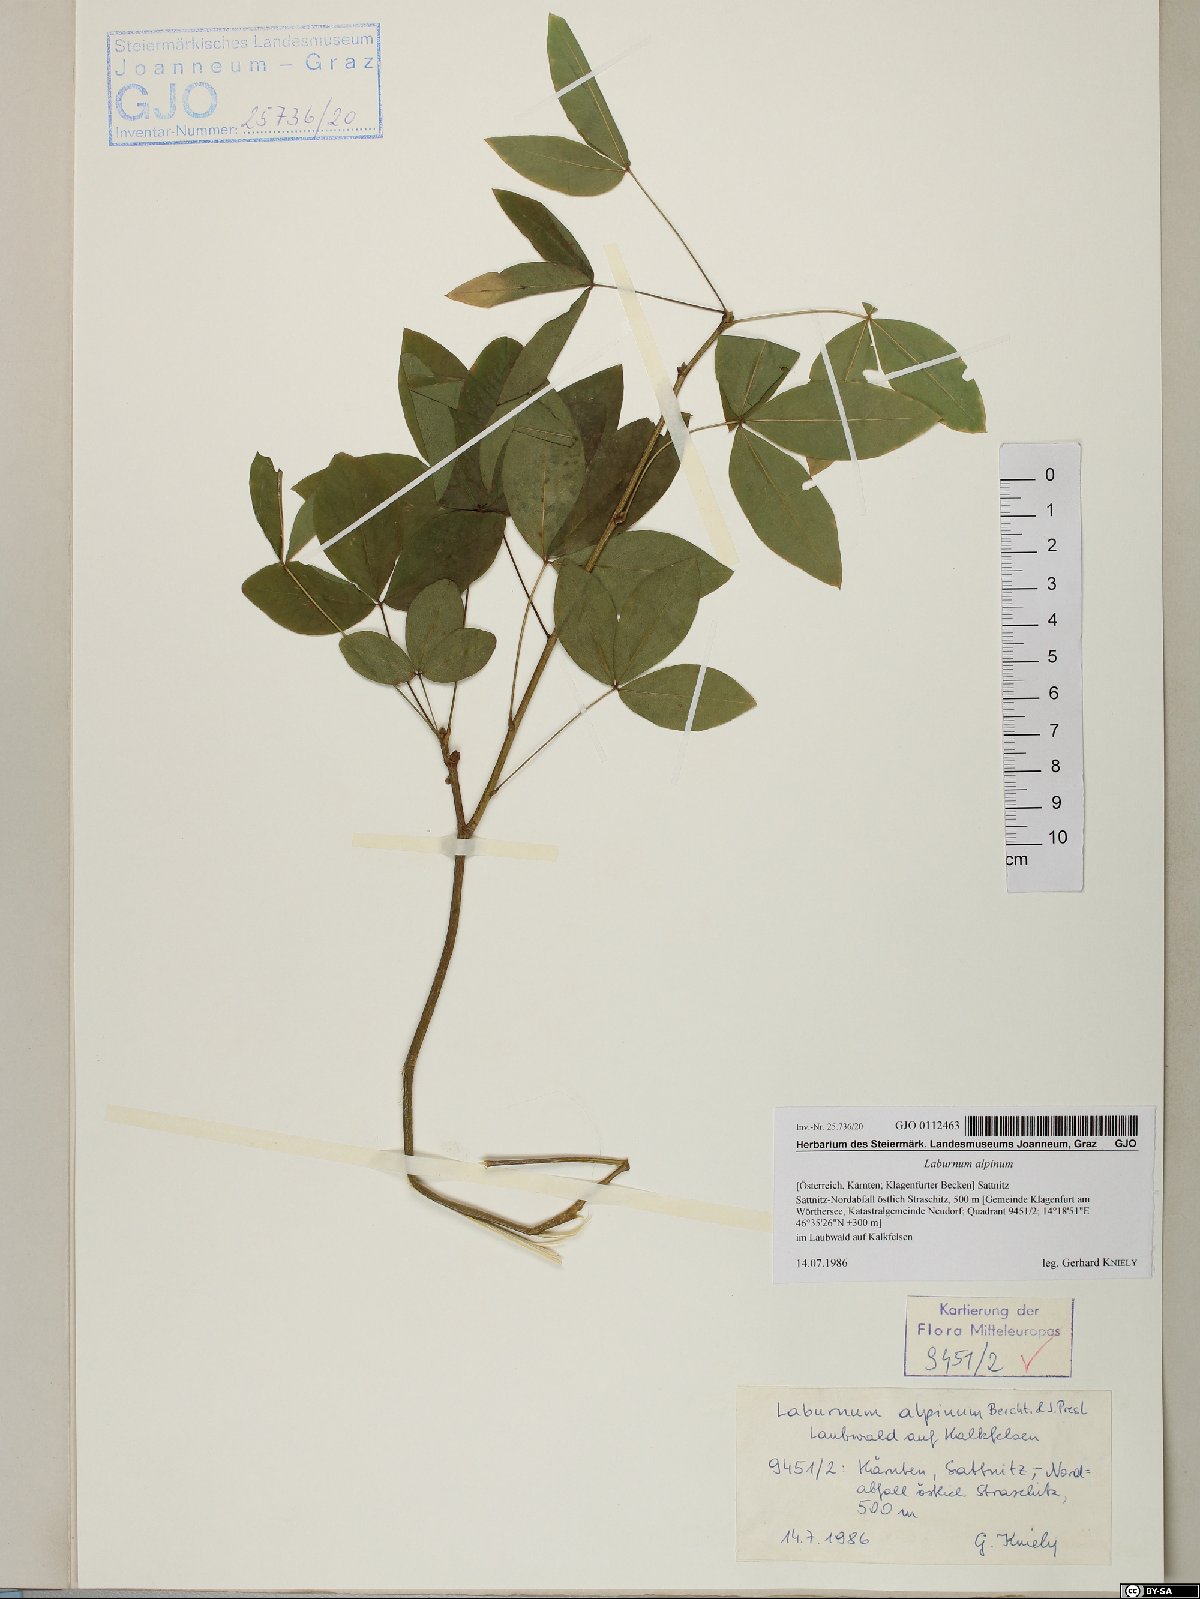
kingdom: Plantae
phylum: Tracheophyta
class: Magnoliopsida
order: Fabales
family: Fabaceae
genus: Laburnum
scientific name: Laburnum alpinum
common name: Scottish laburnum
